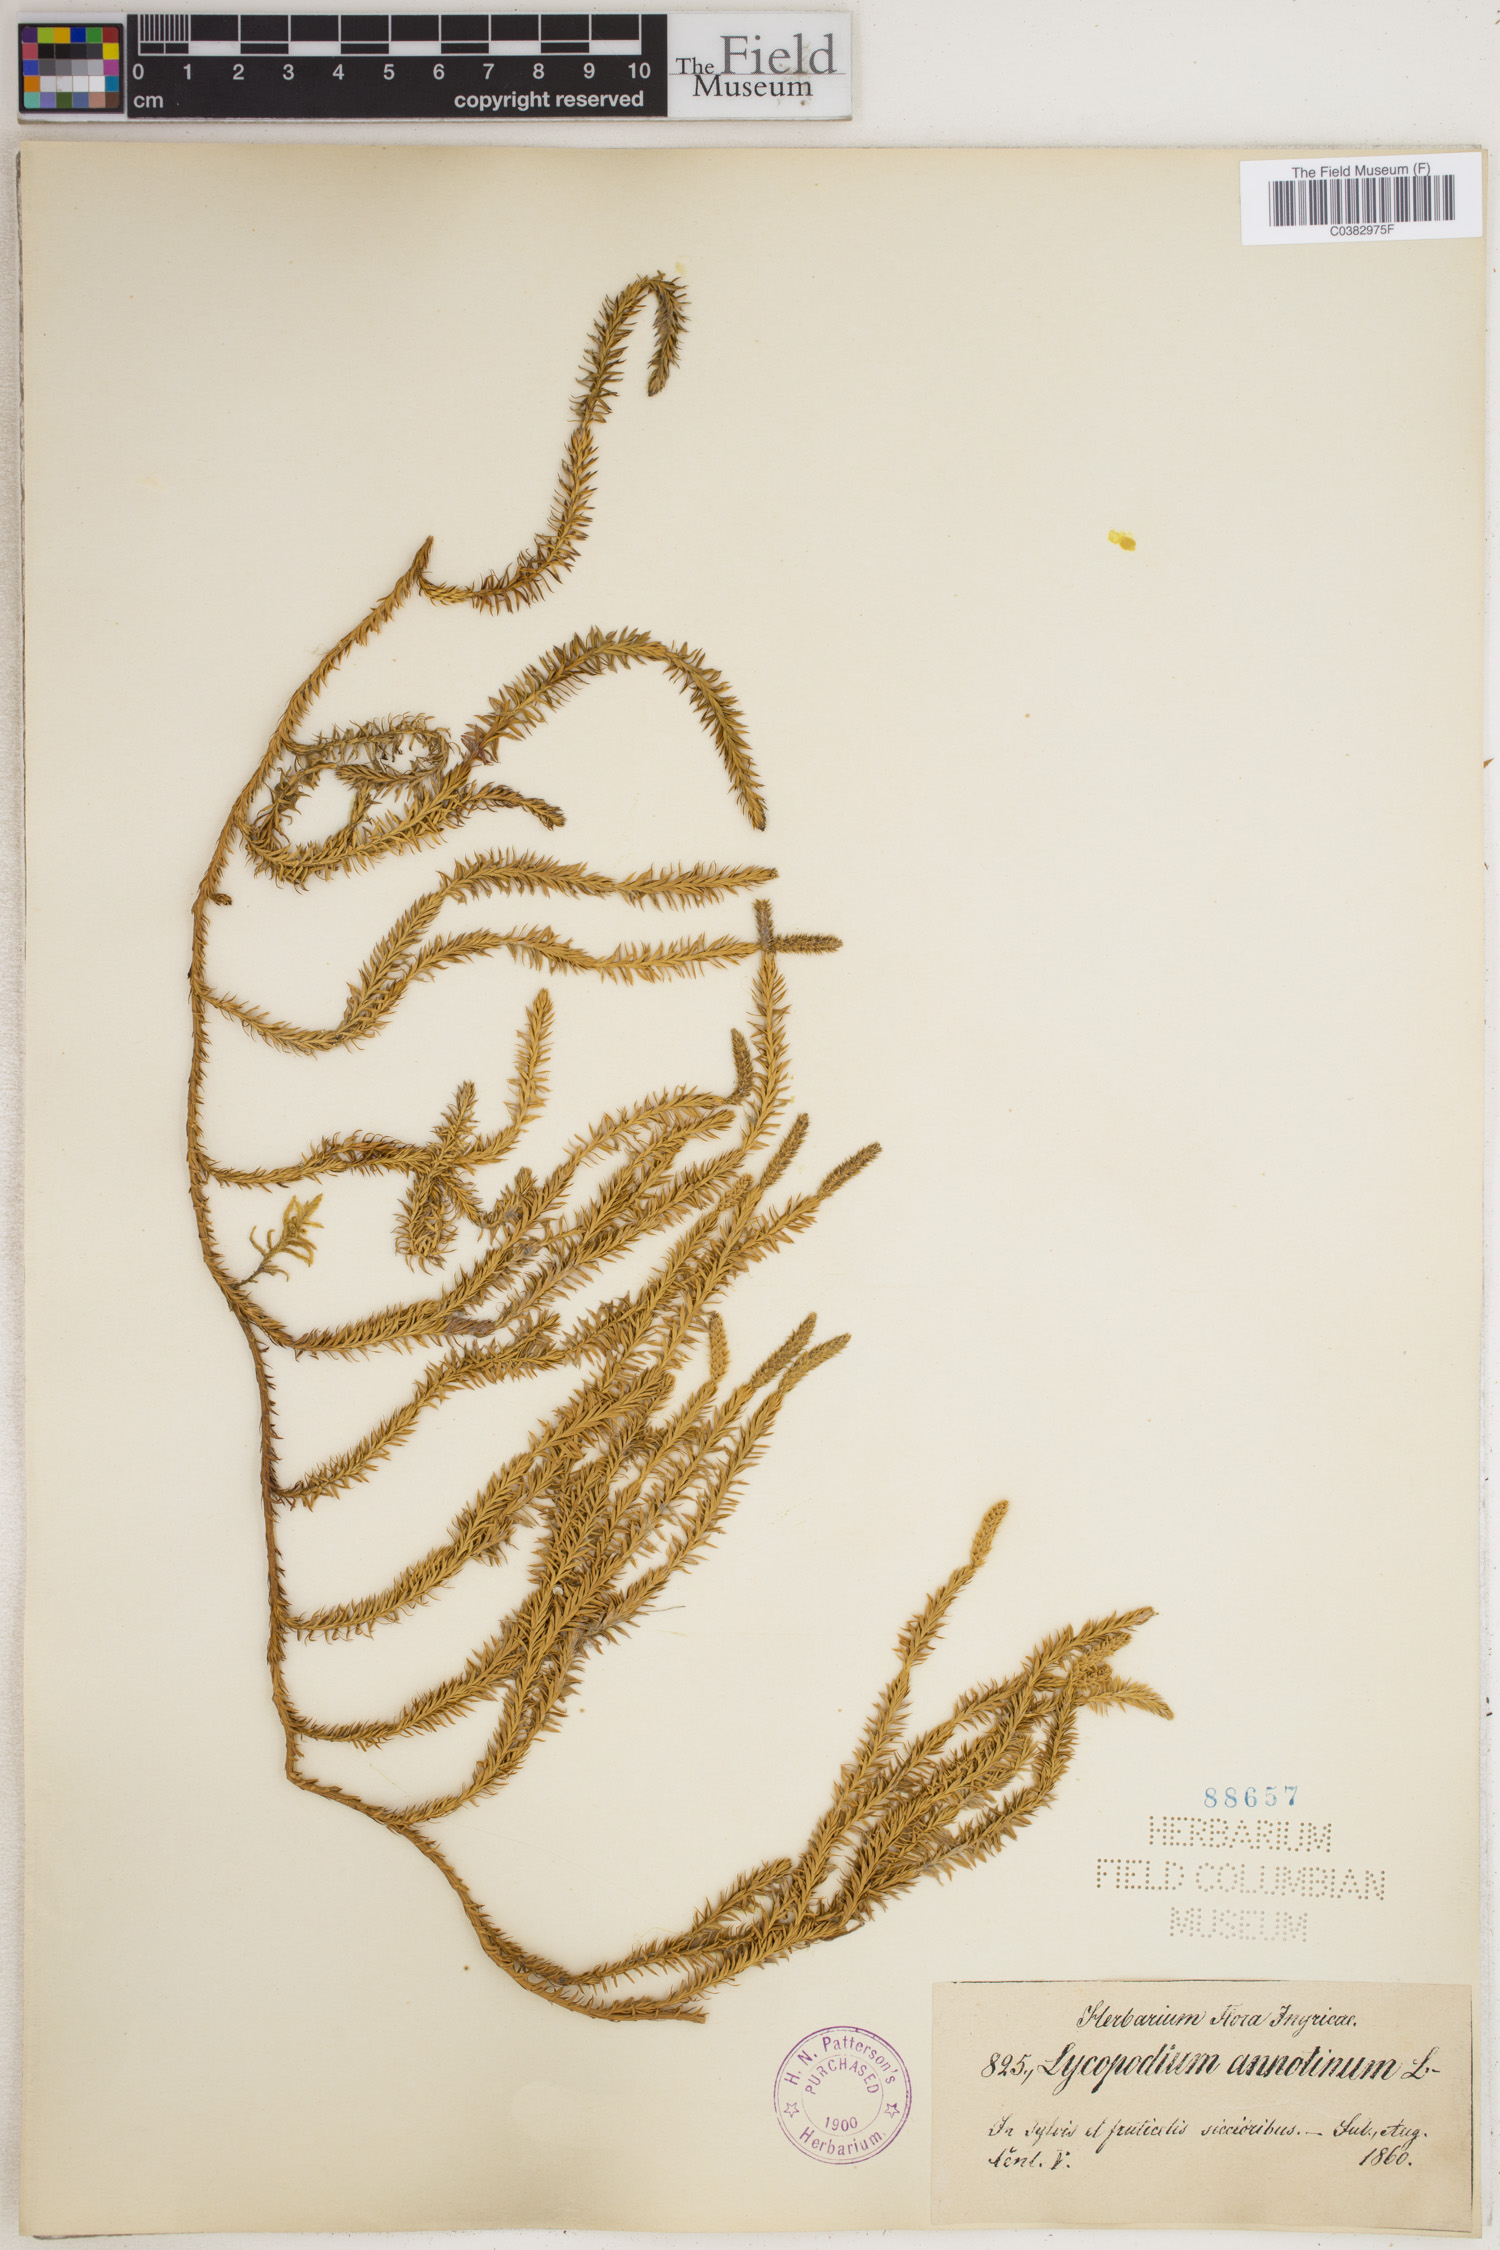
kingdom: Plantae
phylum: Tracheophyta
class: Lycopodiopsida
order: Lycopodiales
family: Lycopodiaceae
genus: Spinulum
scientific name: Spinulum annotinum
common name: Interrupted club-moss
